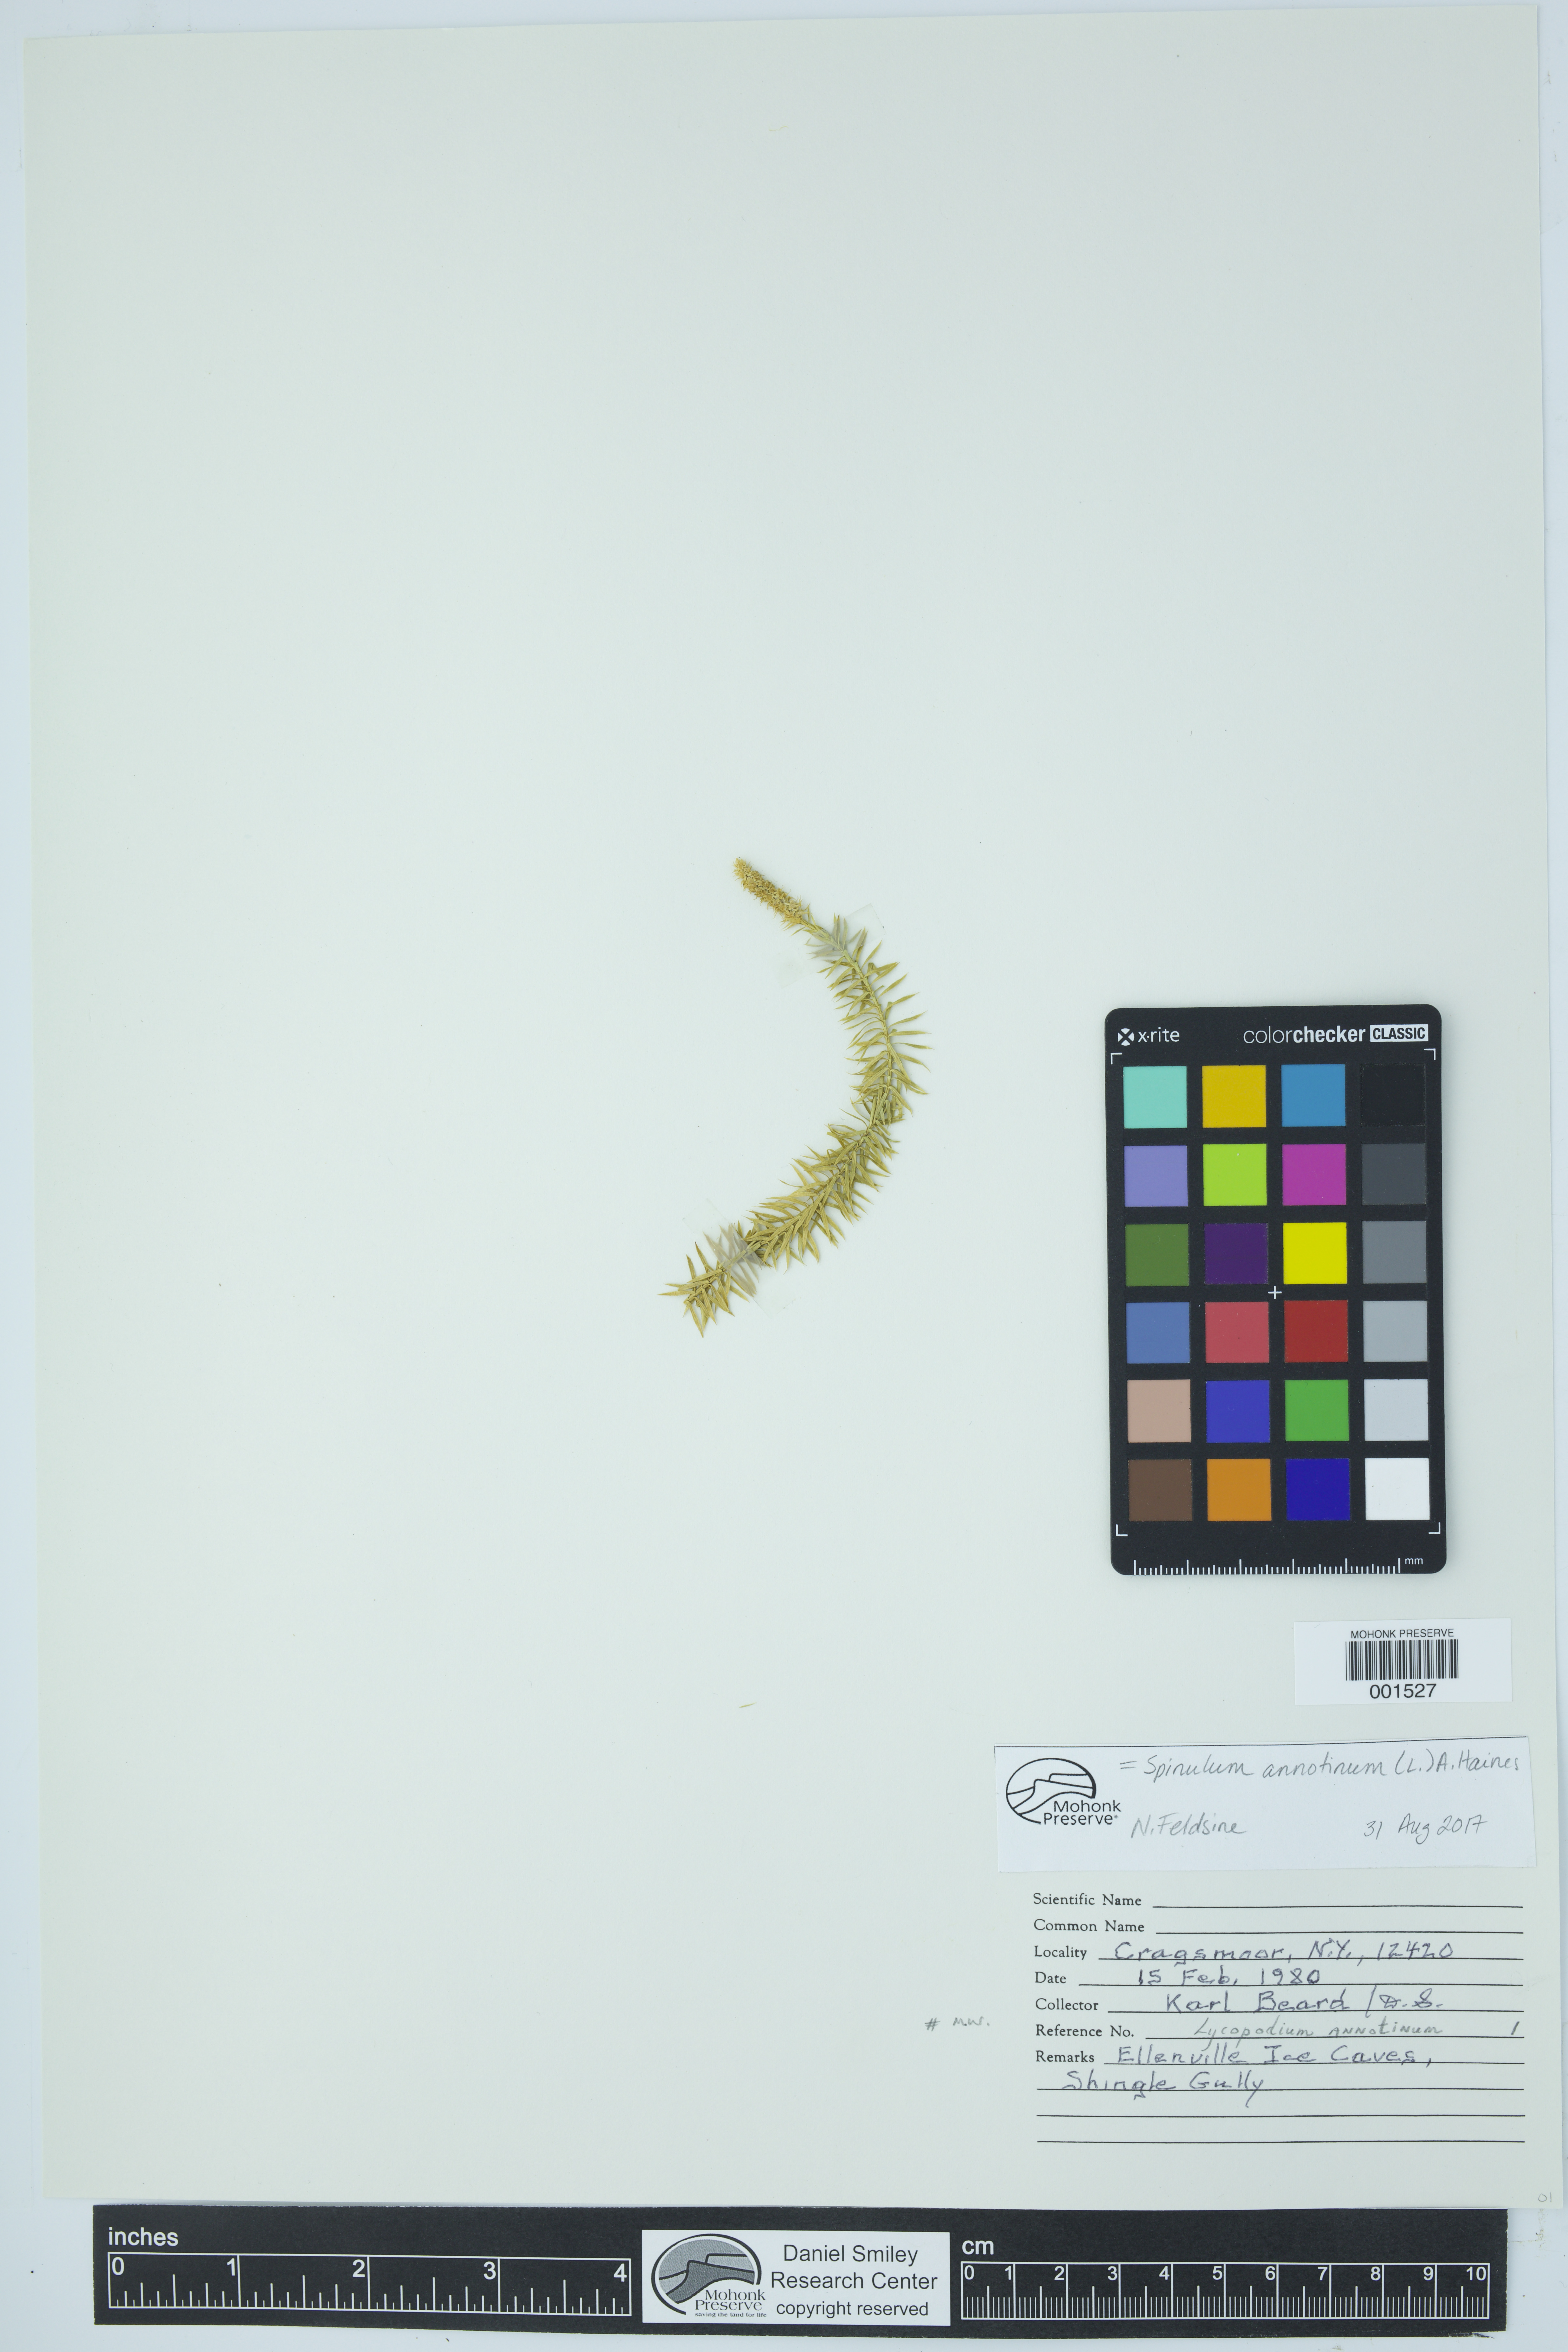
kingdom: Plantae
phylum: Tracheophyta
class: Lycopodiopsida
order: Lycopodiales
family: Lycopodiaceae
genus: Spinulum
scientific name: Spinulum annotinum
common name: Interrupted club-moss
